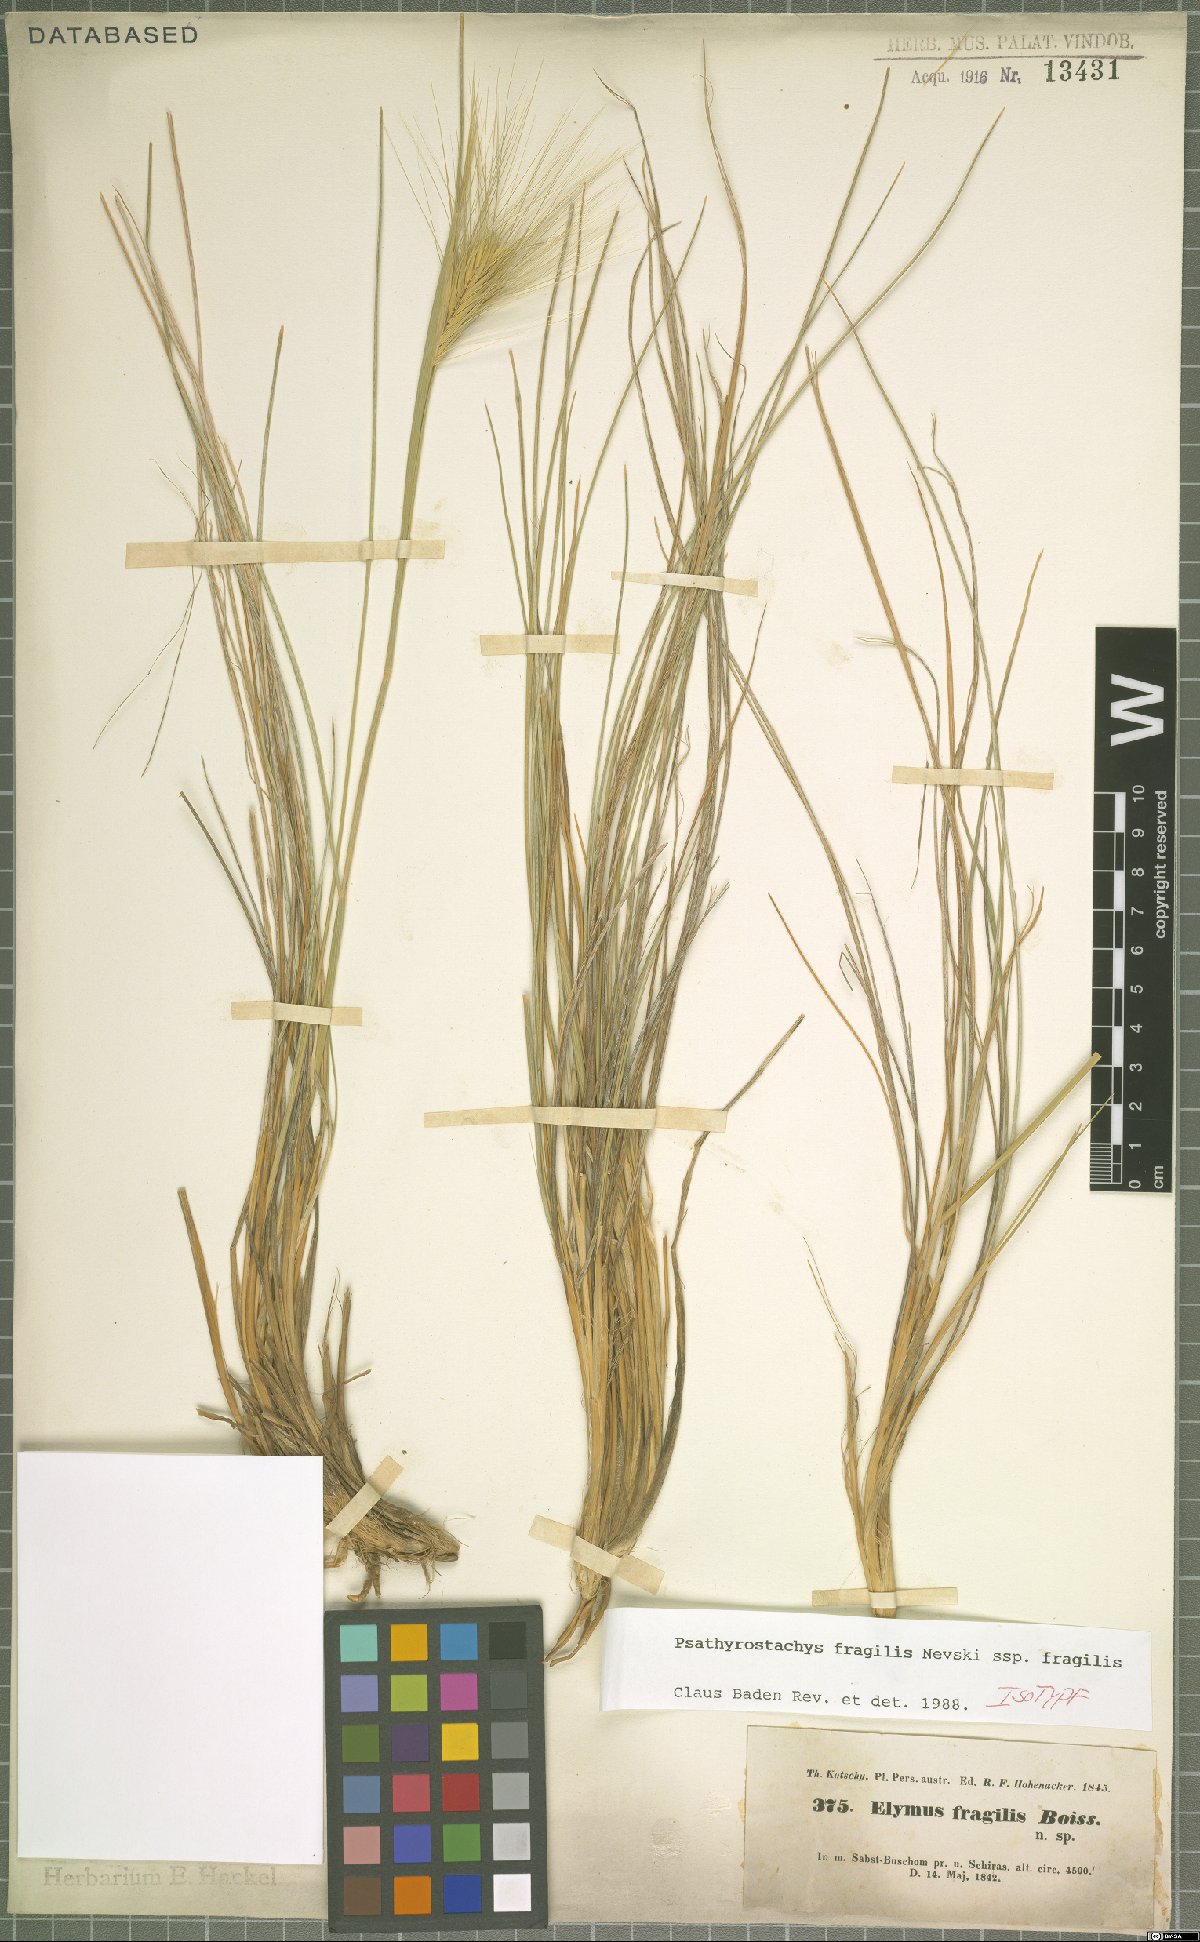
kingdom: Plantae
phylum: Tracheophyta
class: Liliopsida
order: Poales
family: Poaceae
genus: Psathyrostachys
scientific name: Psathyrostachys fragilis
